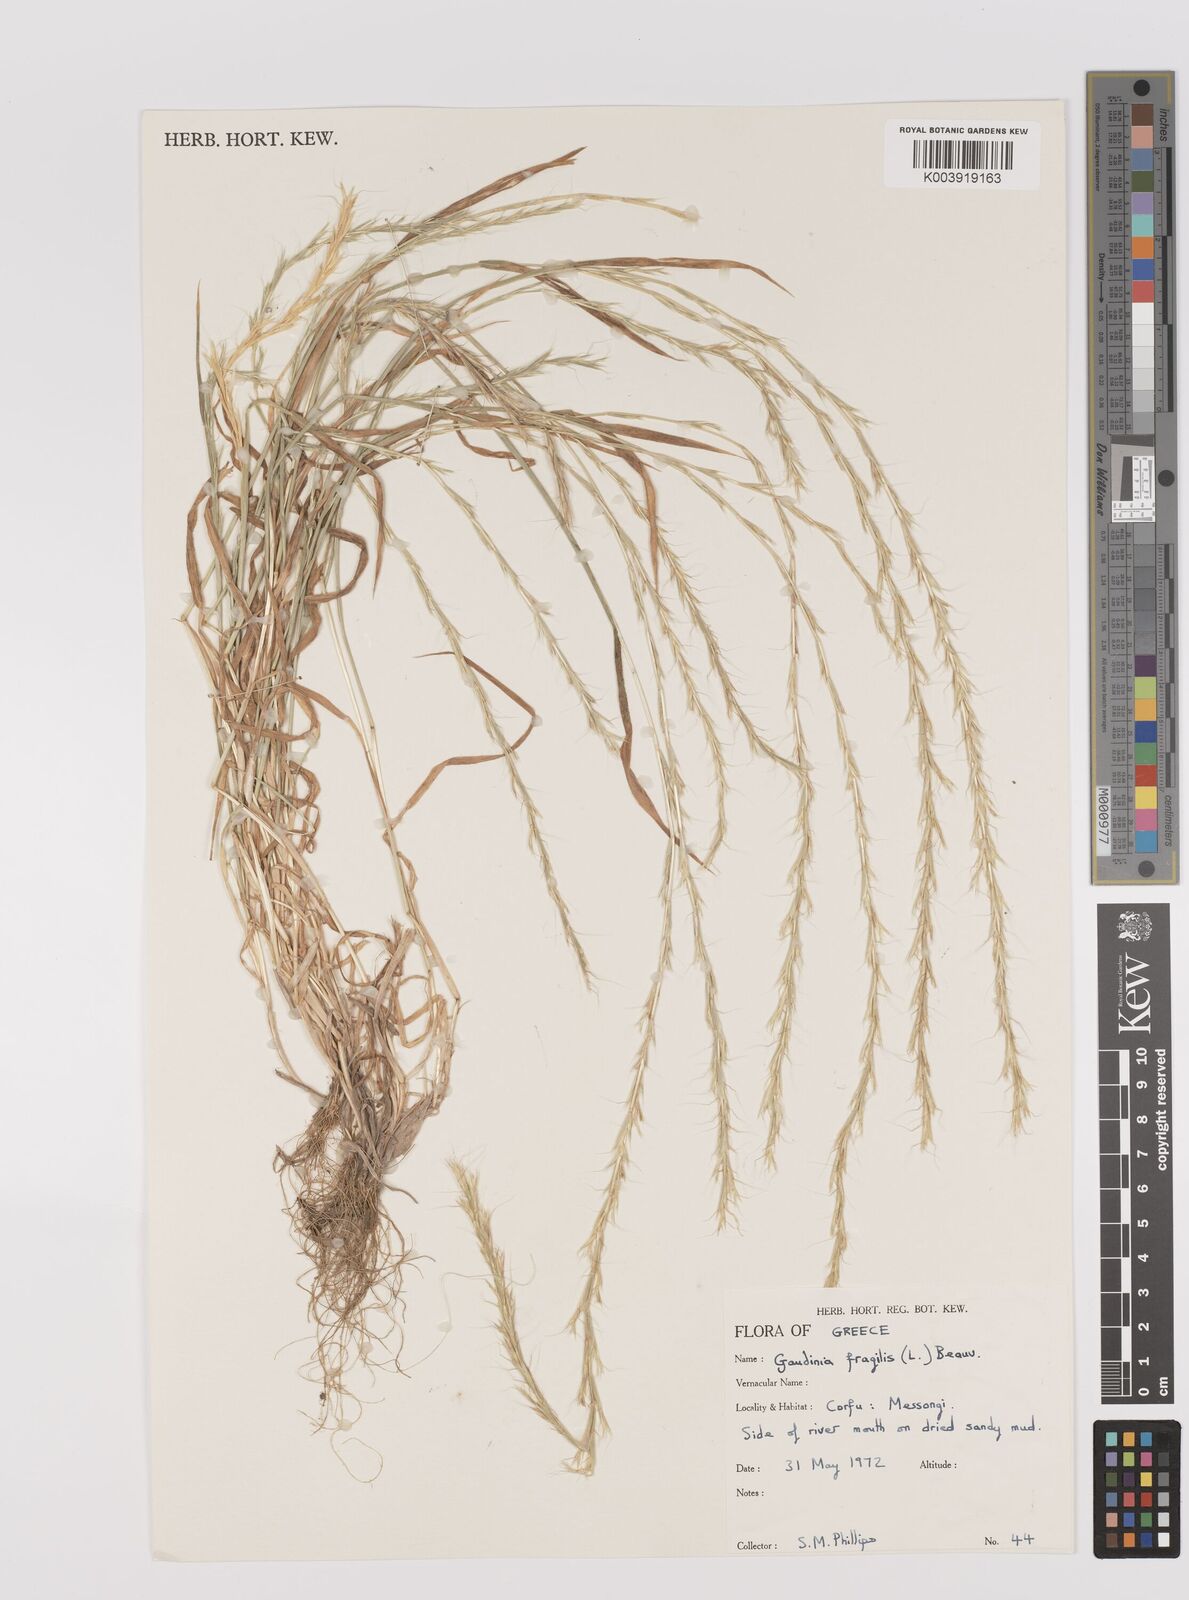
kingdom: Plantae
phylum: Tracheophyta
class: Liliopsida
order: Poales
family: Poaceae
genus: Gaudinia
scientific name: Gaudinia fragilis
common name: French oat-grass
